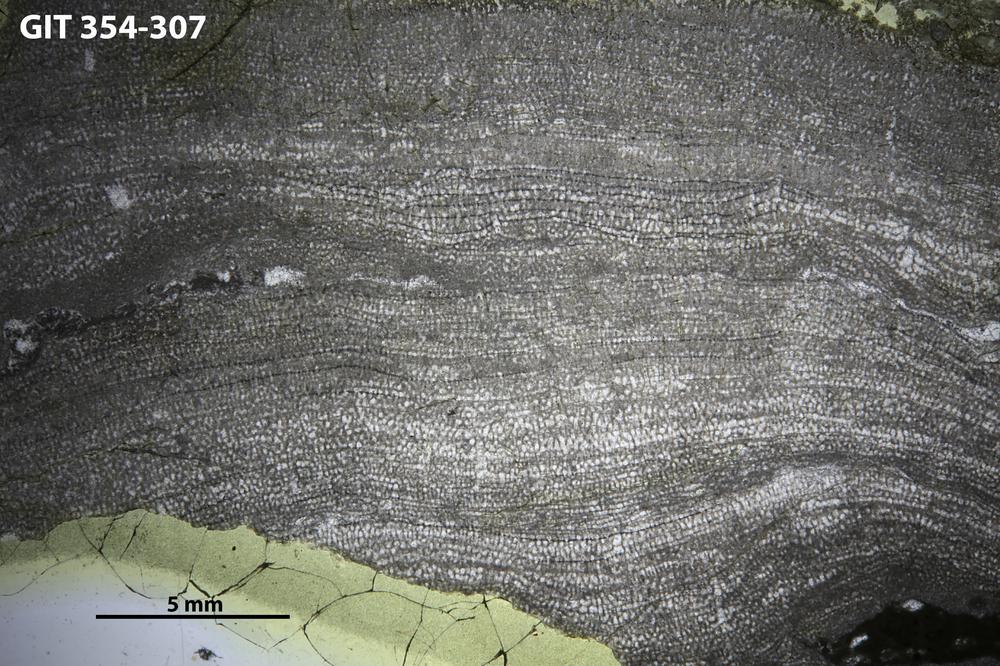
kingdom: Animalia
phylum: Porifera
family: Actinostromatidae
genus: Plectostroma
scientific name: Plectostroma necopinatum
